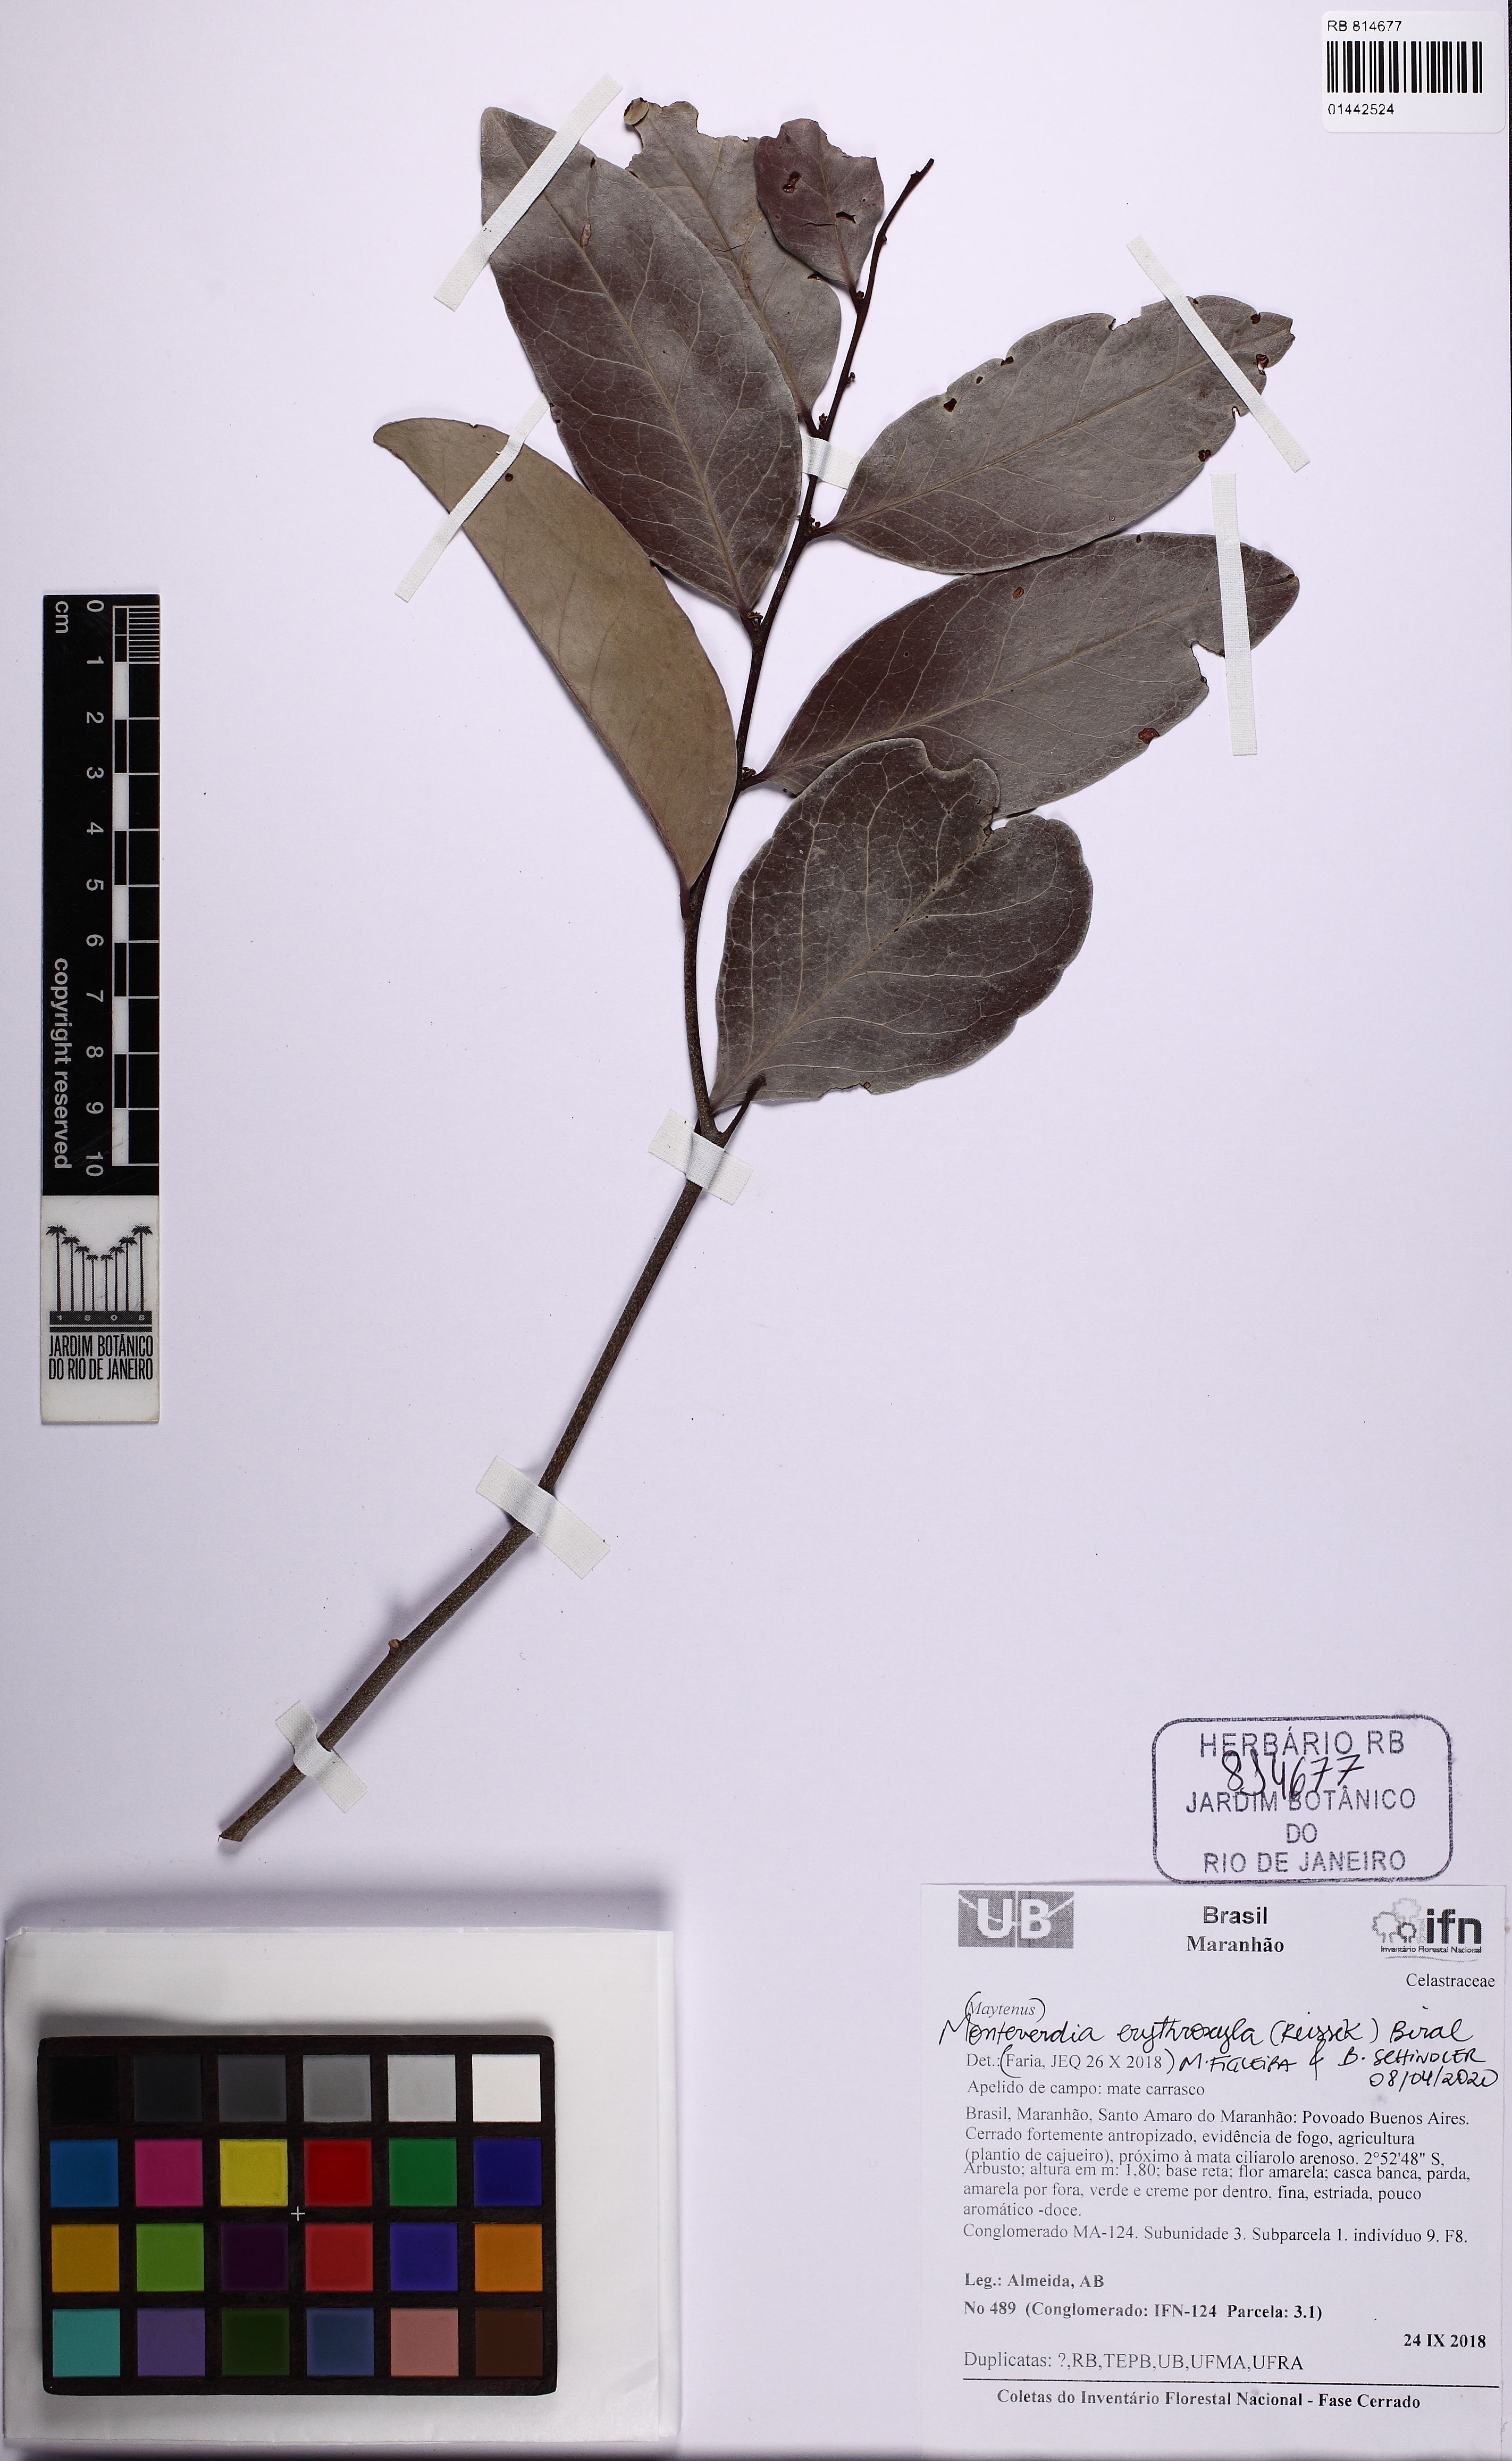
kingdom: Plantae
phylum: Tracheophyta
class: Magnoliopsida
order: Celastrales
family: Celastraceae
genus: Monteverdia
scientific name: Monteverdia erythroxylon
